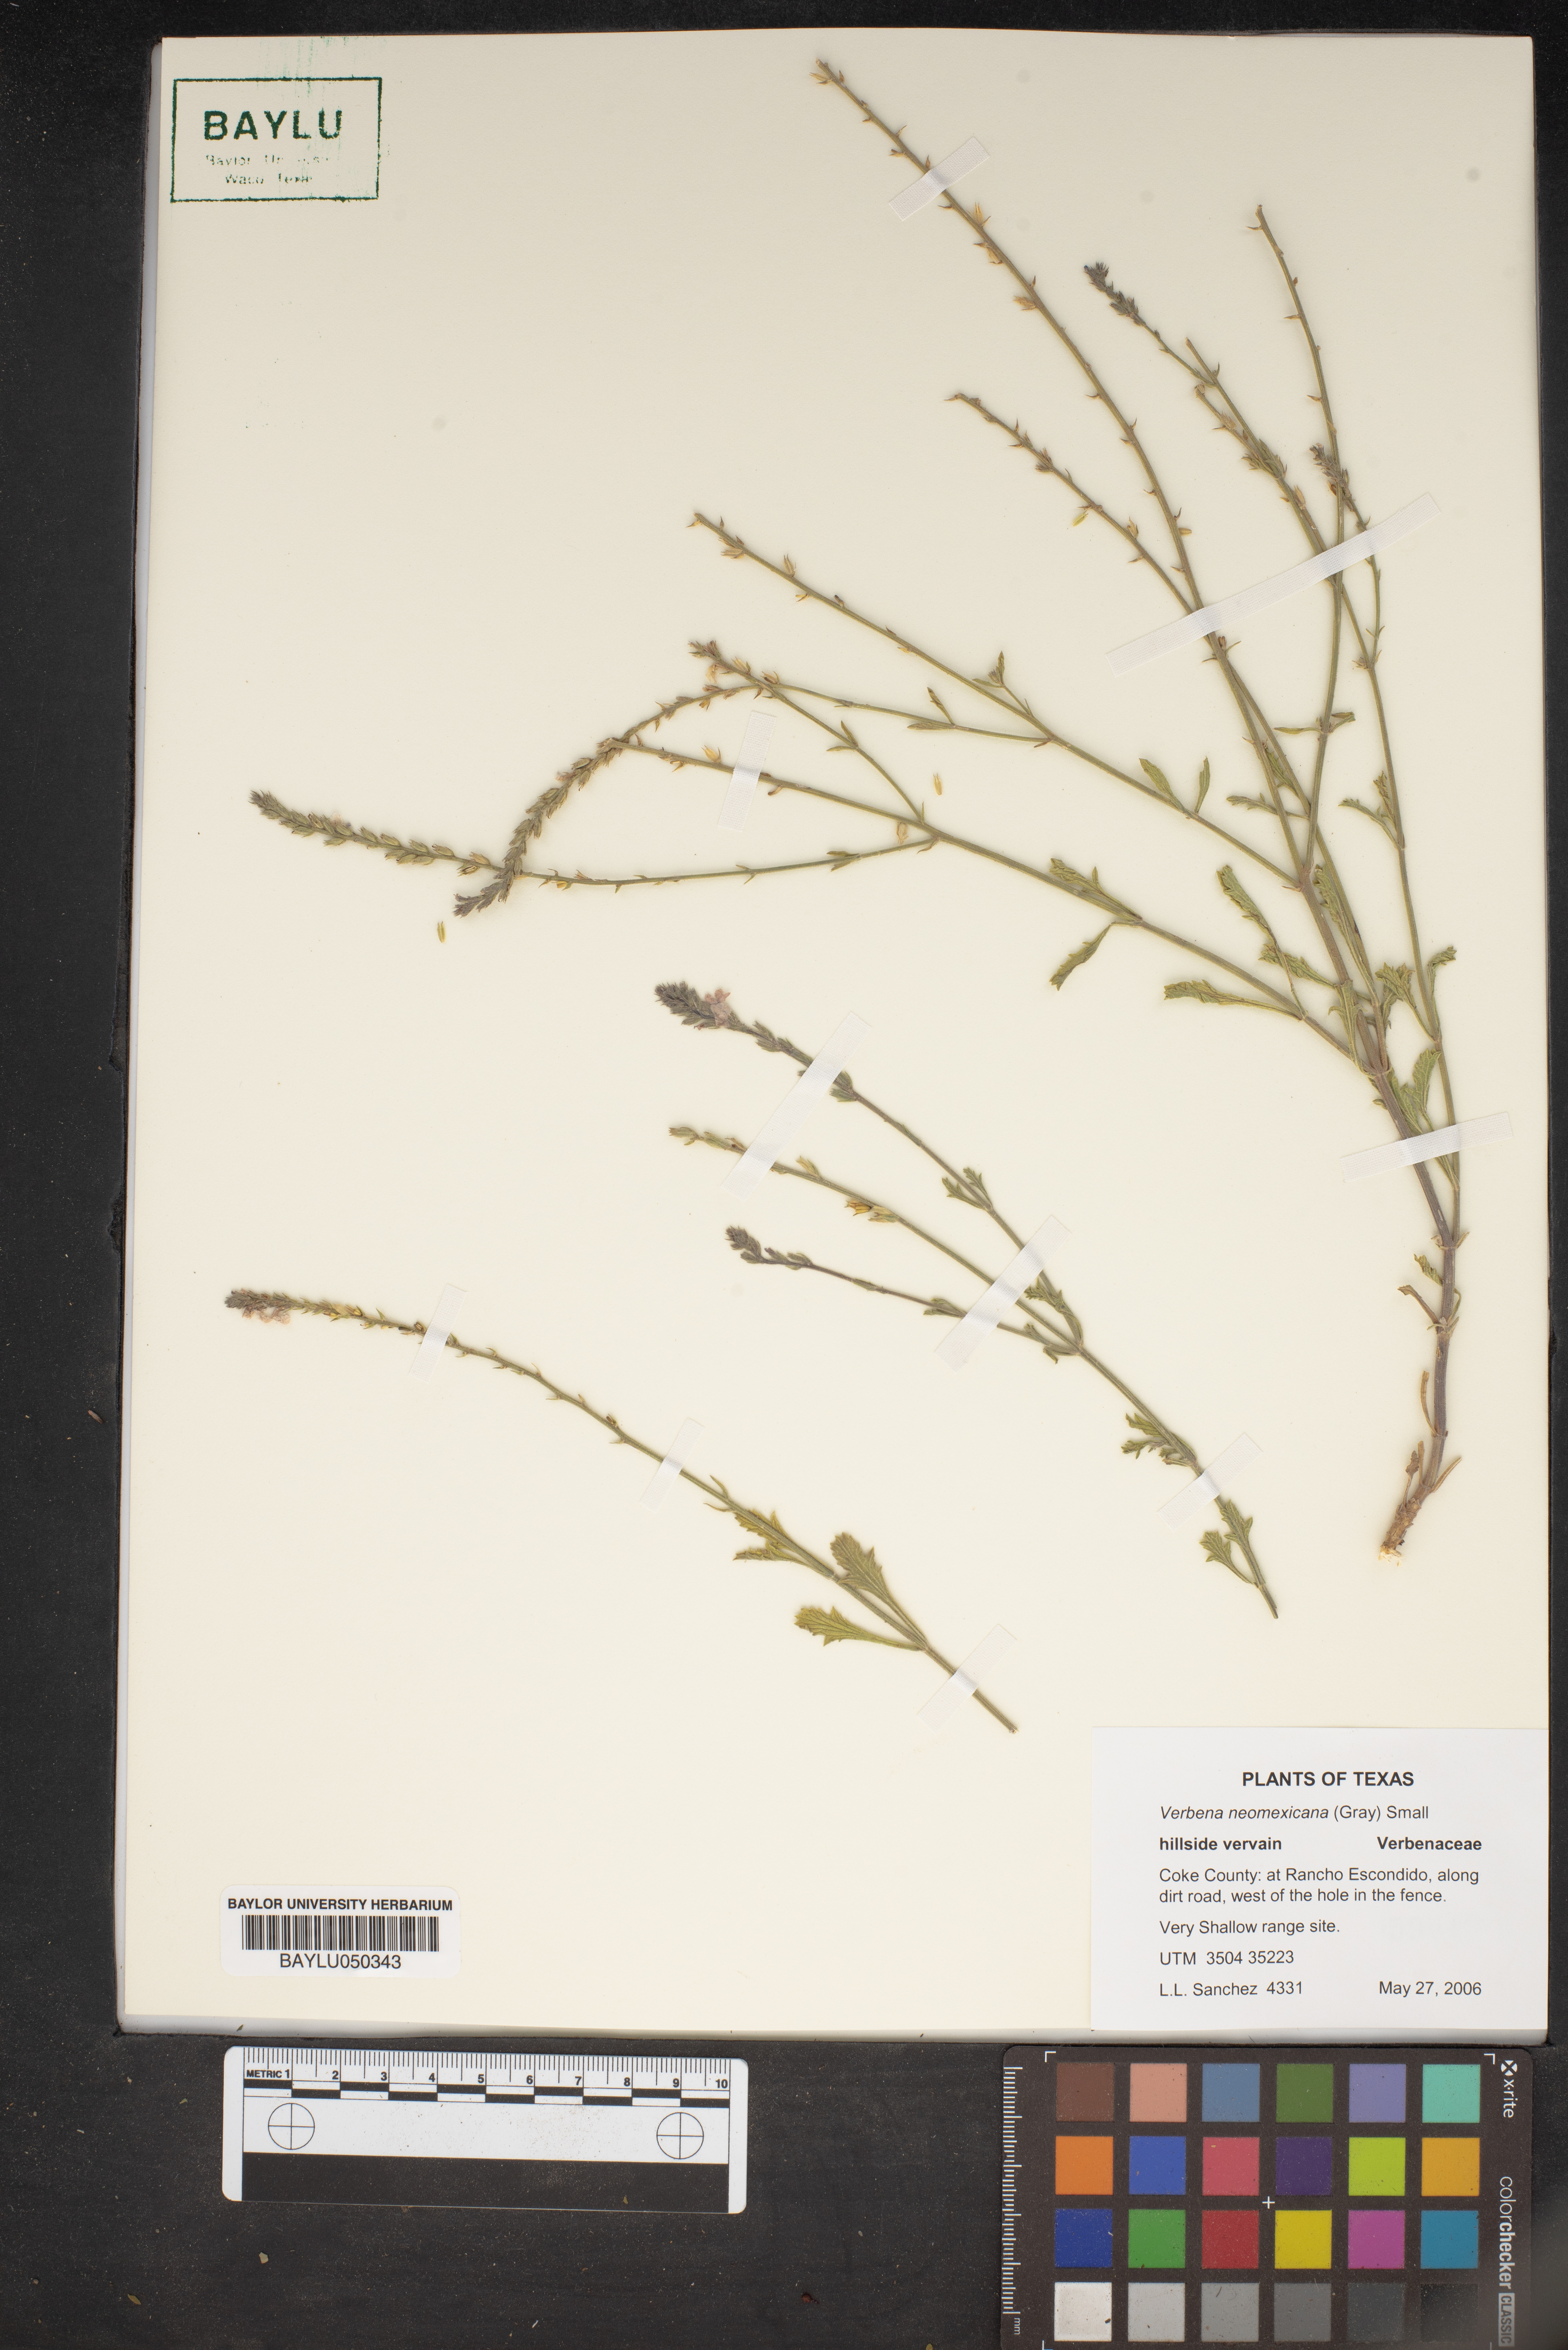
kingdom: Plantae
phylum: Tracheophyta
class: Magnoliopsida
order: Lamiales
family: Verbenaceae
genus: Verbena
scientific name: Verbena neomexicana
